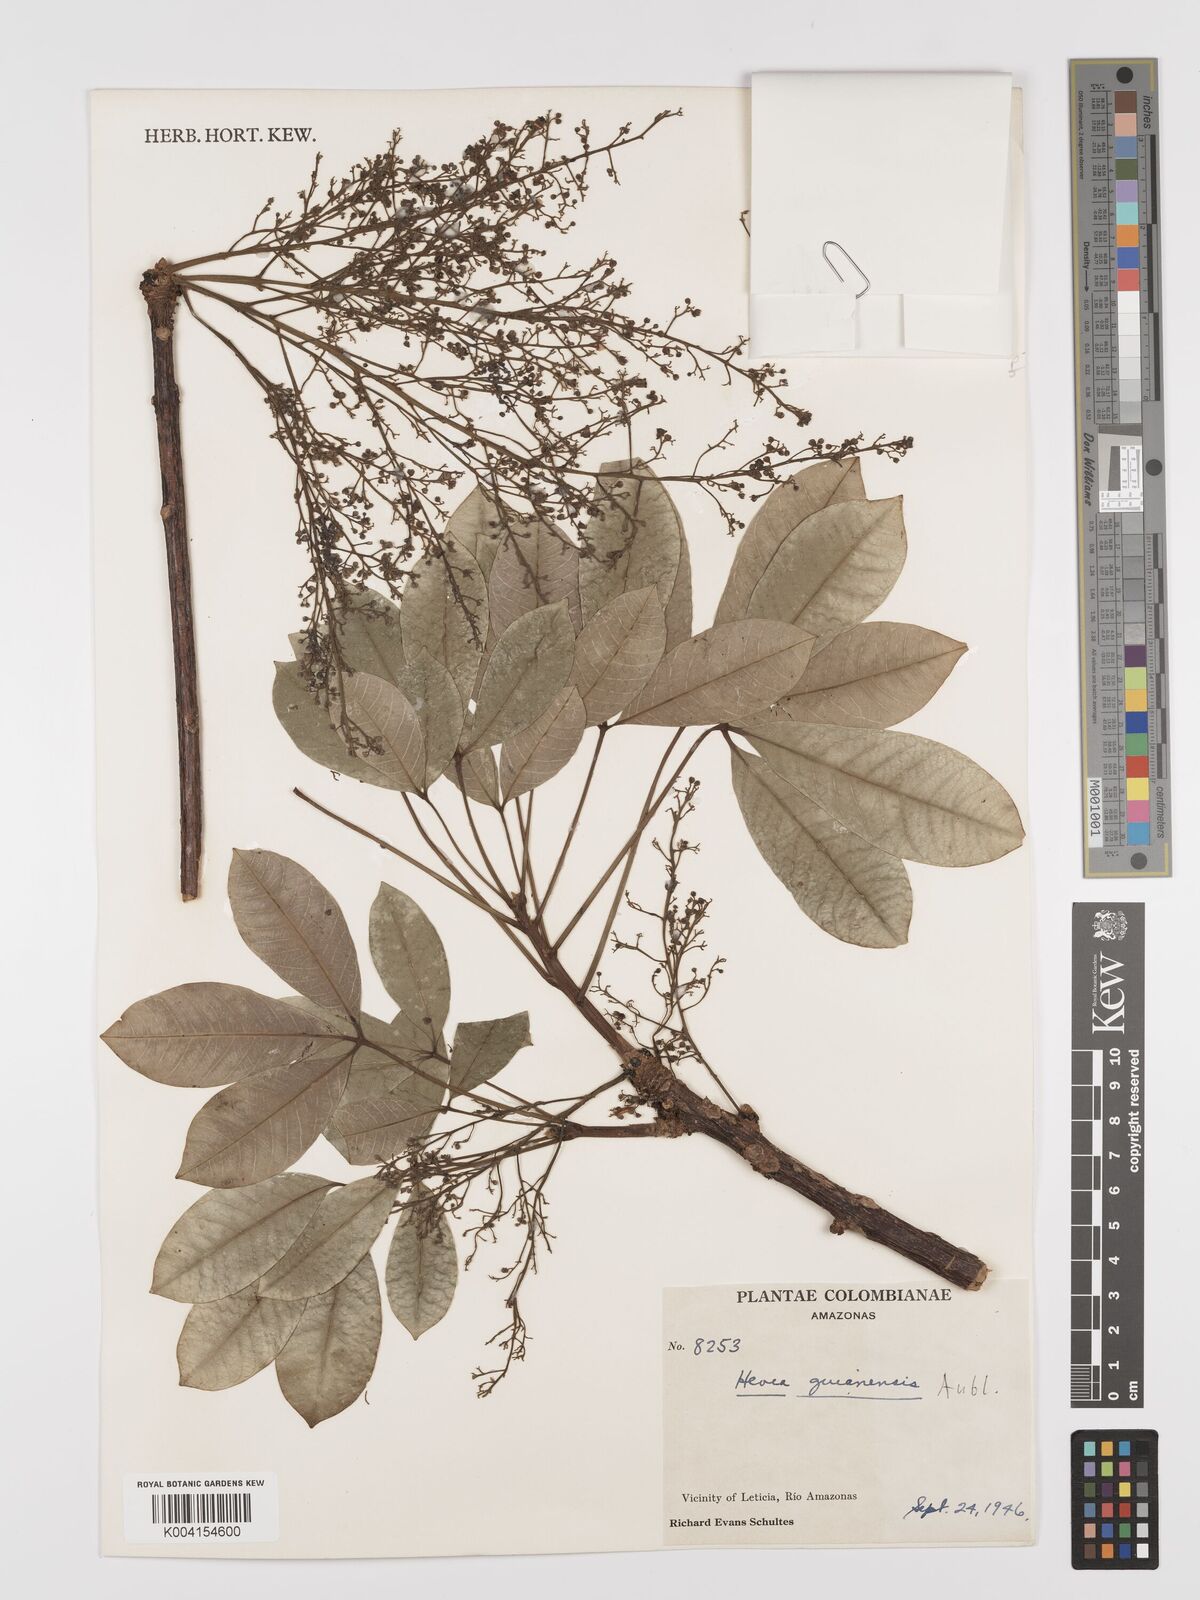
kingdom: Plantae
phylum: Tracheophyta
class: Magnoliopsida
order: Malpighiales
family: Euphorbiaceae
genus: Hevea
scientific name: Hevea guianensis
